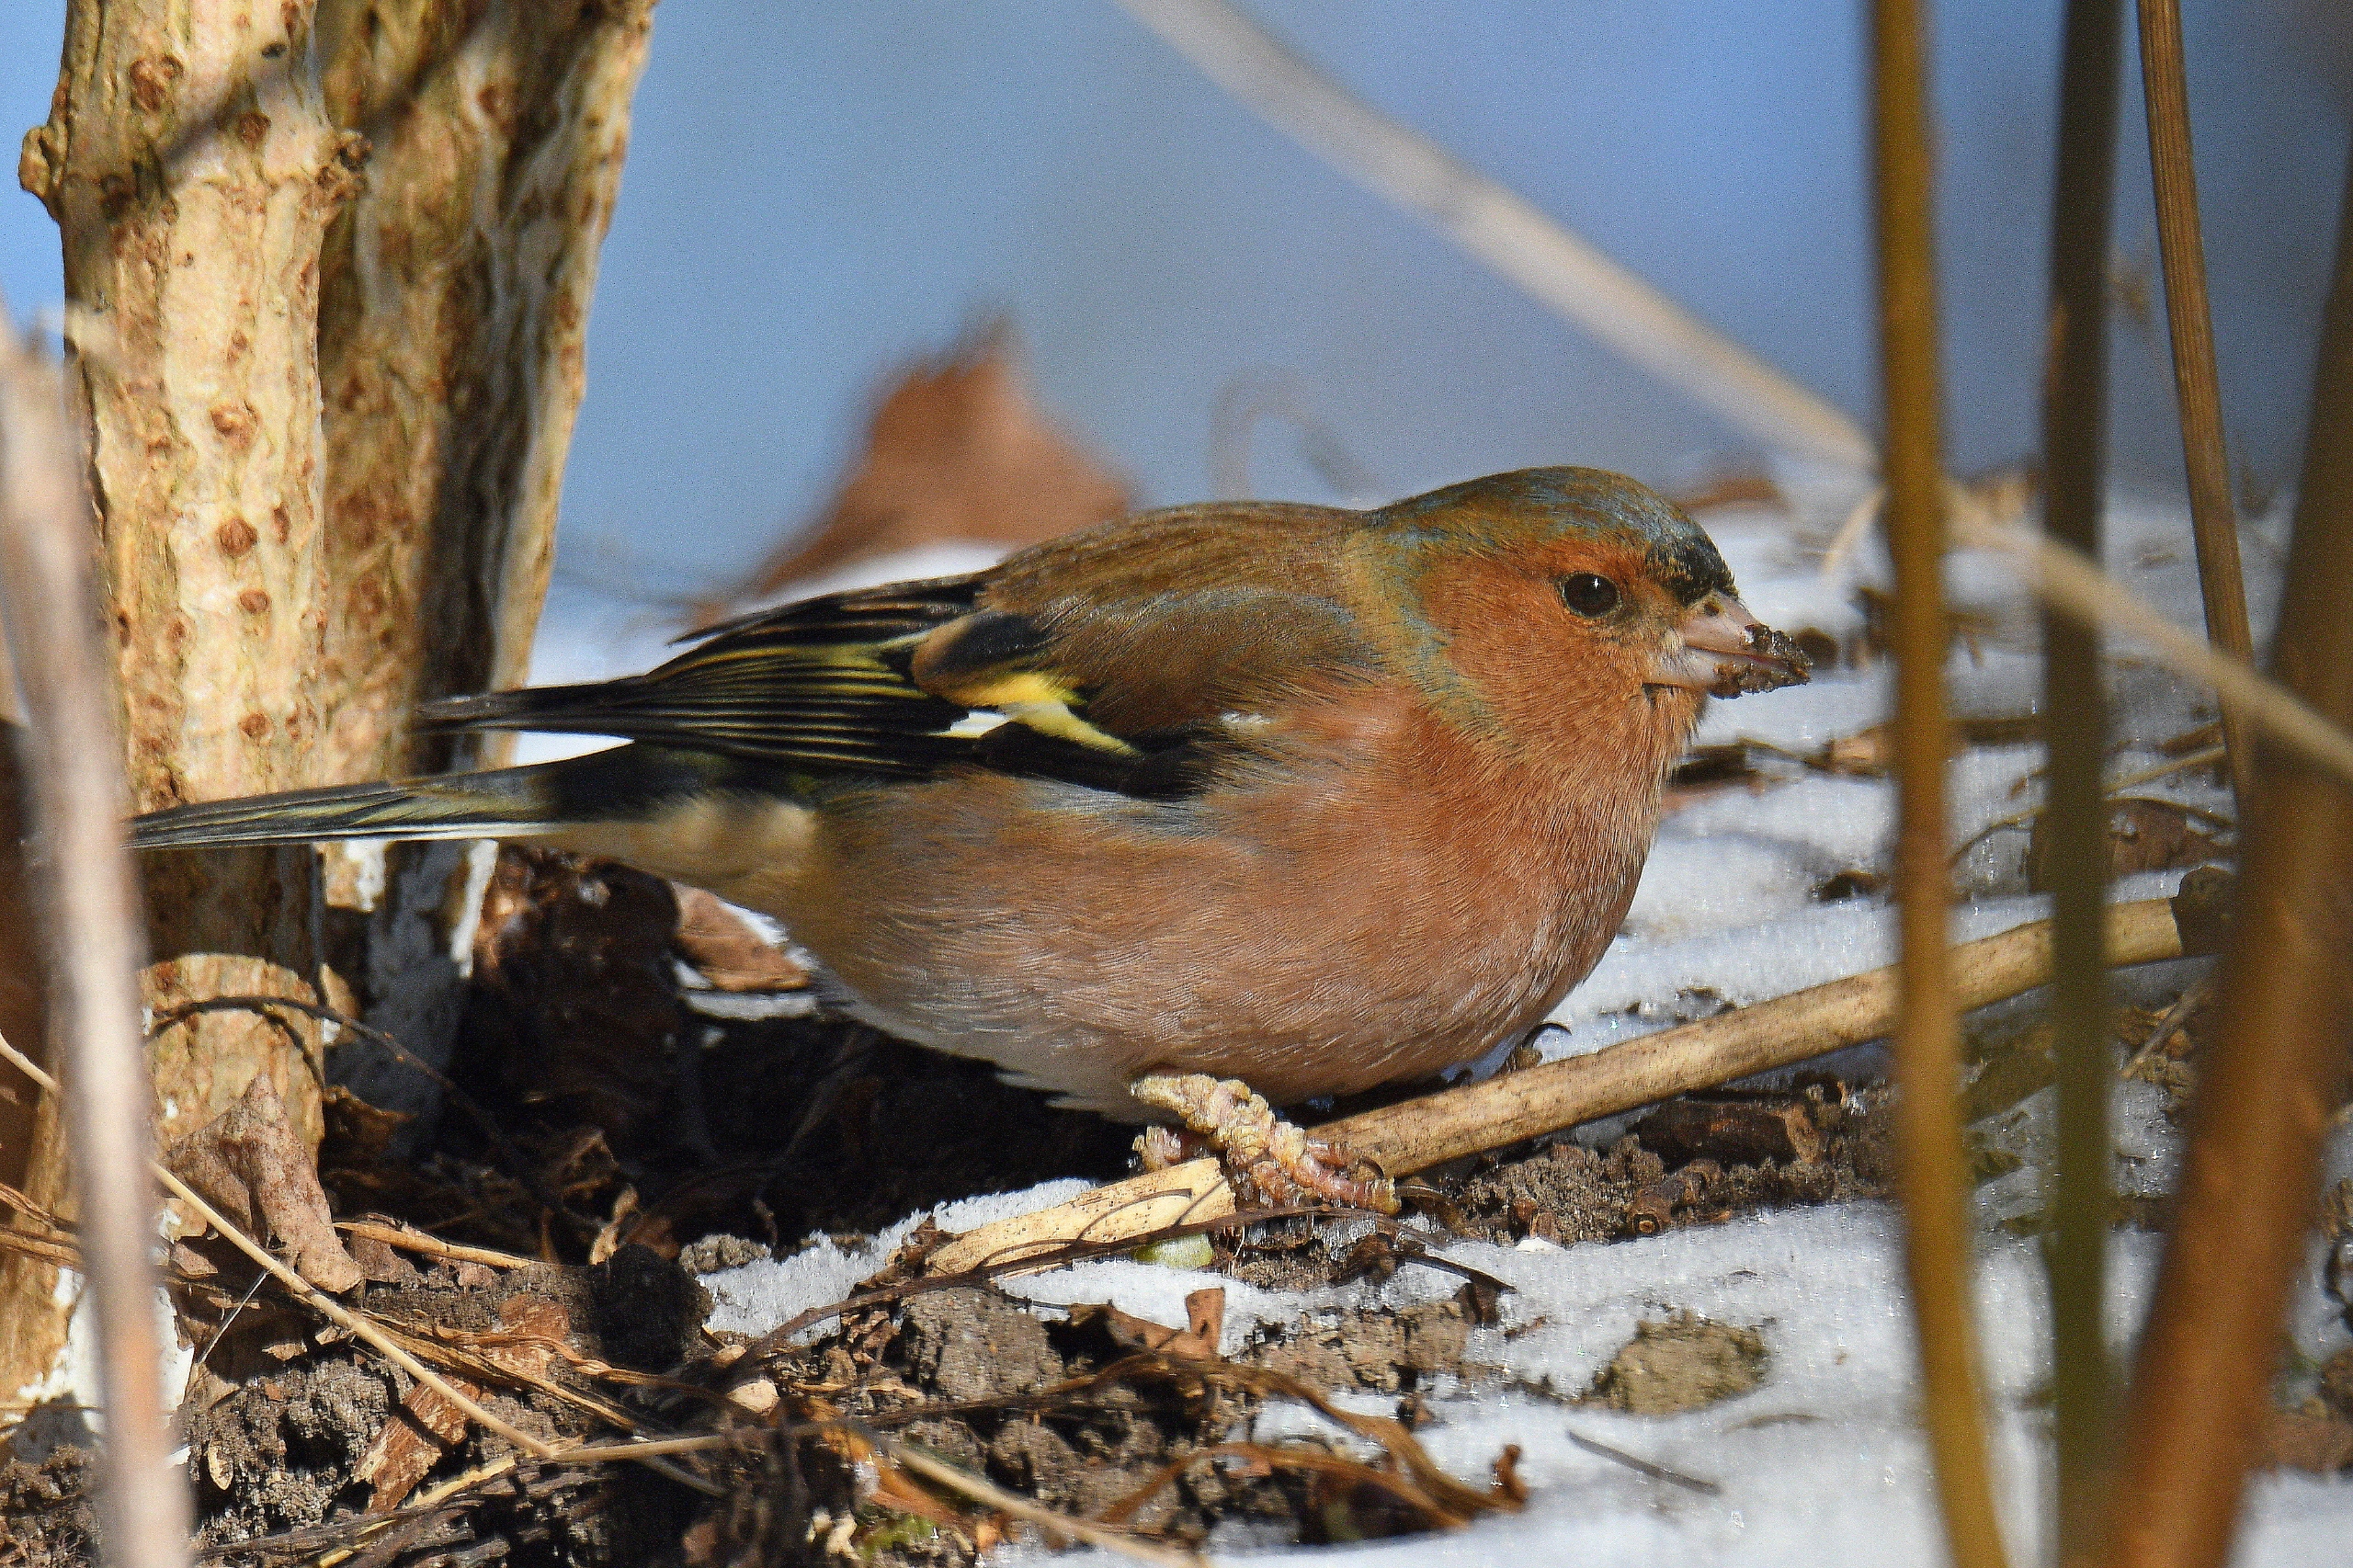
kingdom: Animalia
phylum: Chordata
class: Aves
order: Passeriformes
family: Fringillidae
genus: Fringilla
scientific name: Fringilla coelebs
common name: Bogfinke
